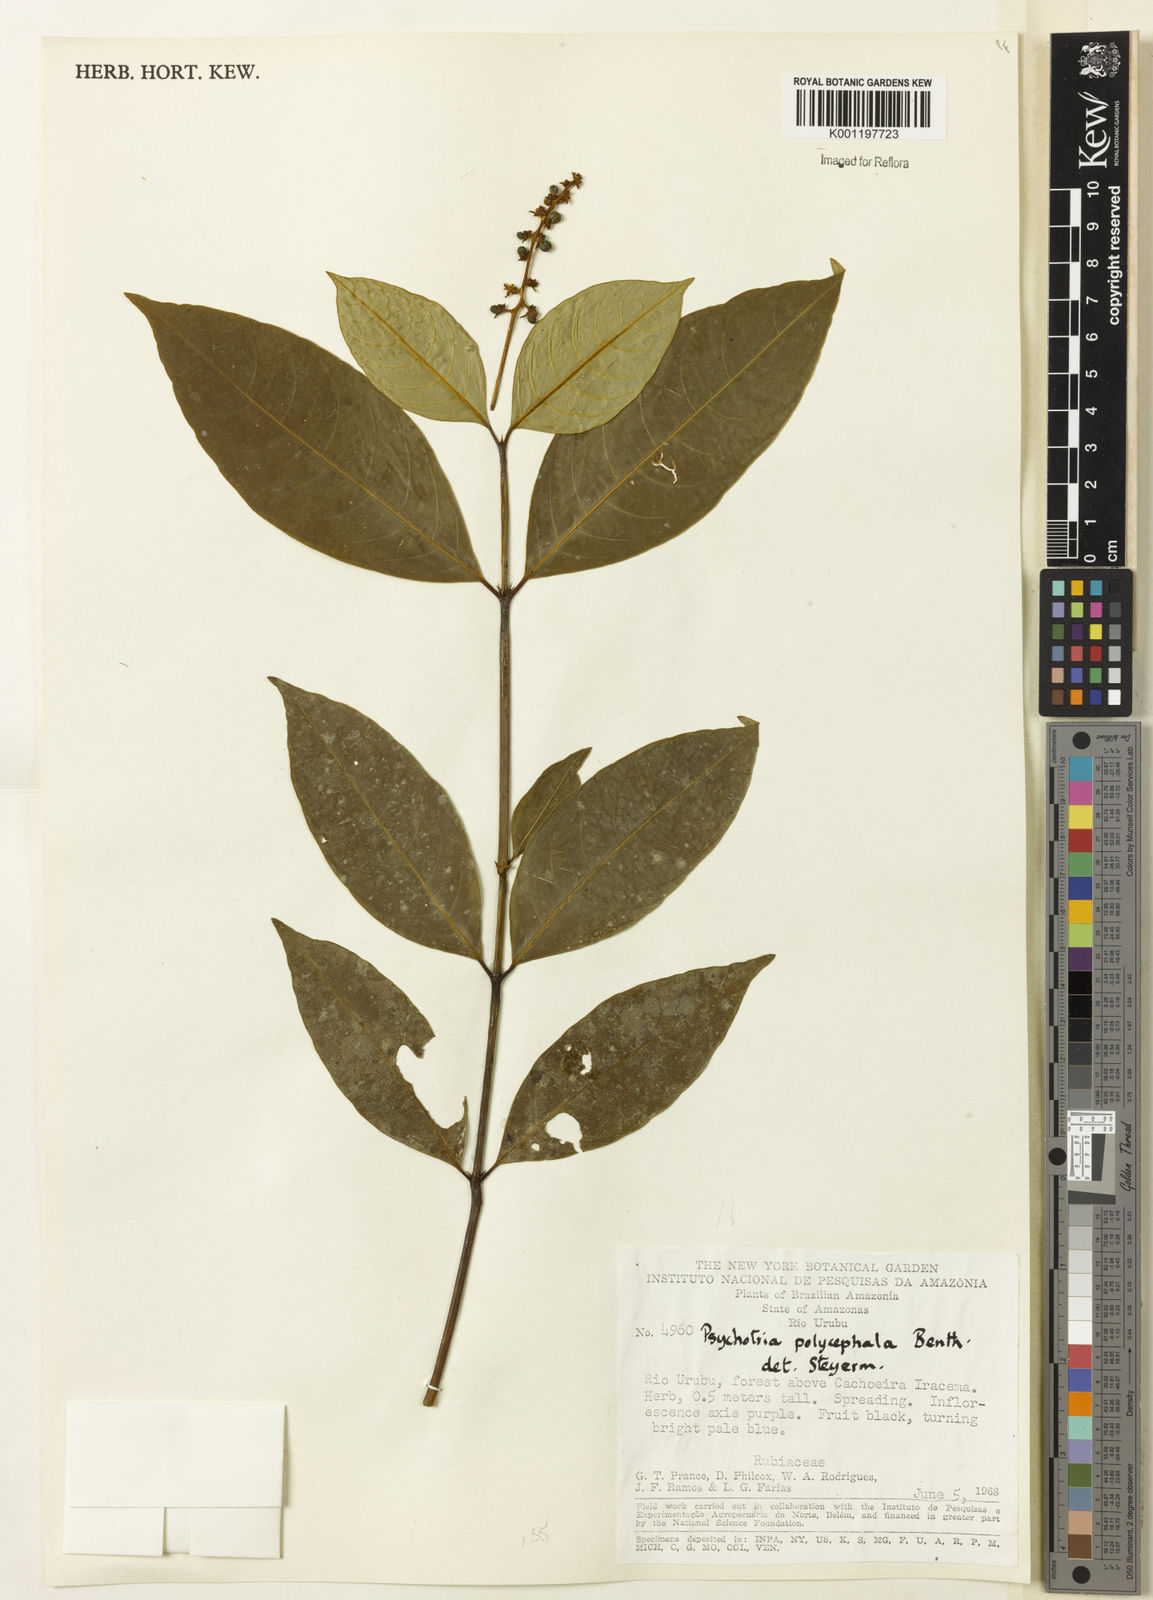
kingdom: Plantae
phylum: Tracheophyta
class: Magnoliopsida
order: Gentianales
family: Rubiaceae
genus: Palicourea
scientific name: Palicourea polycephala
